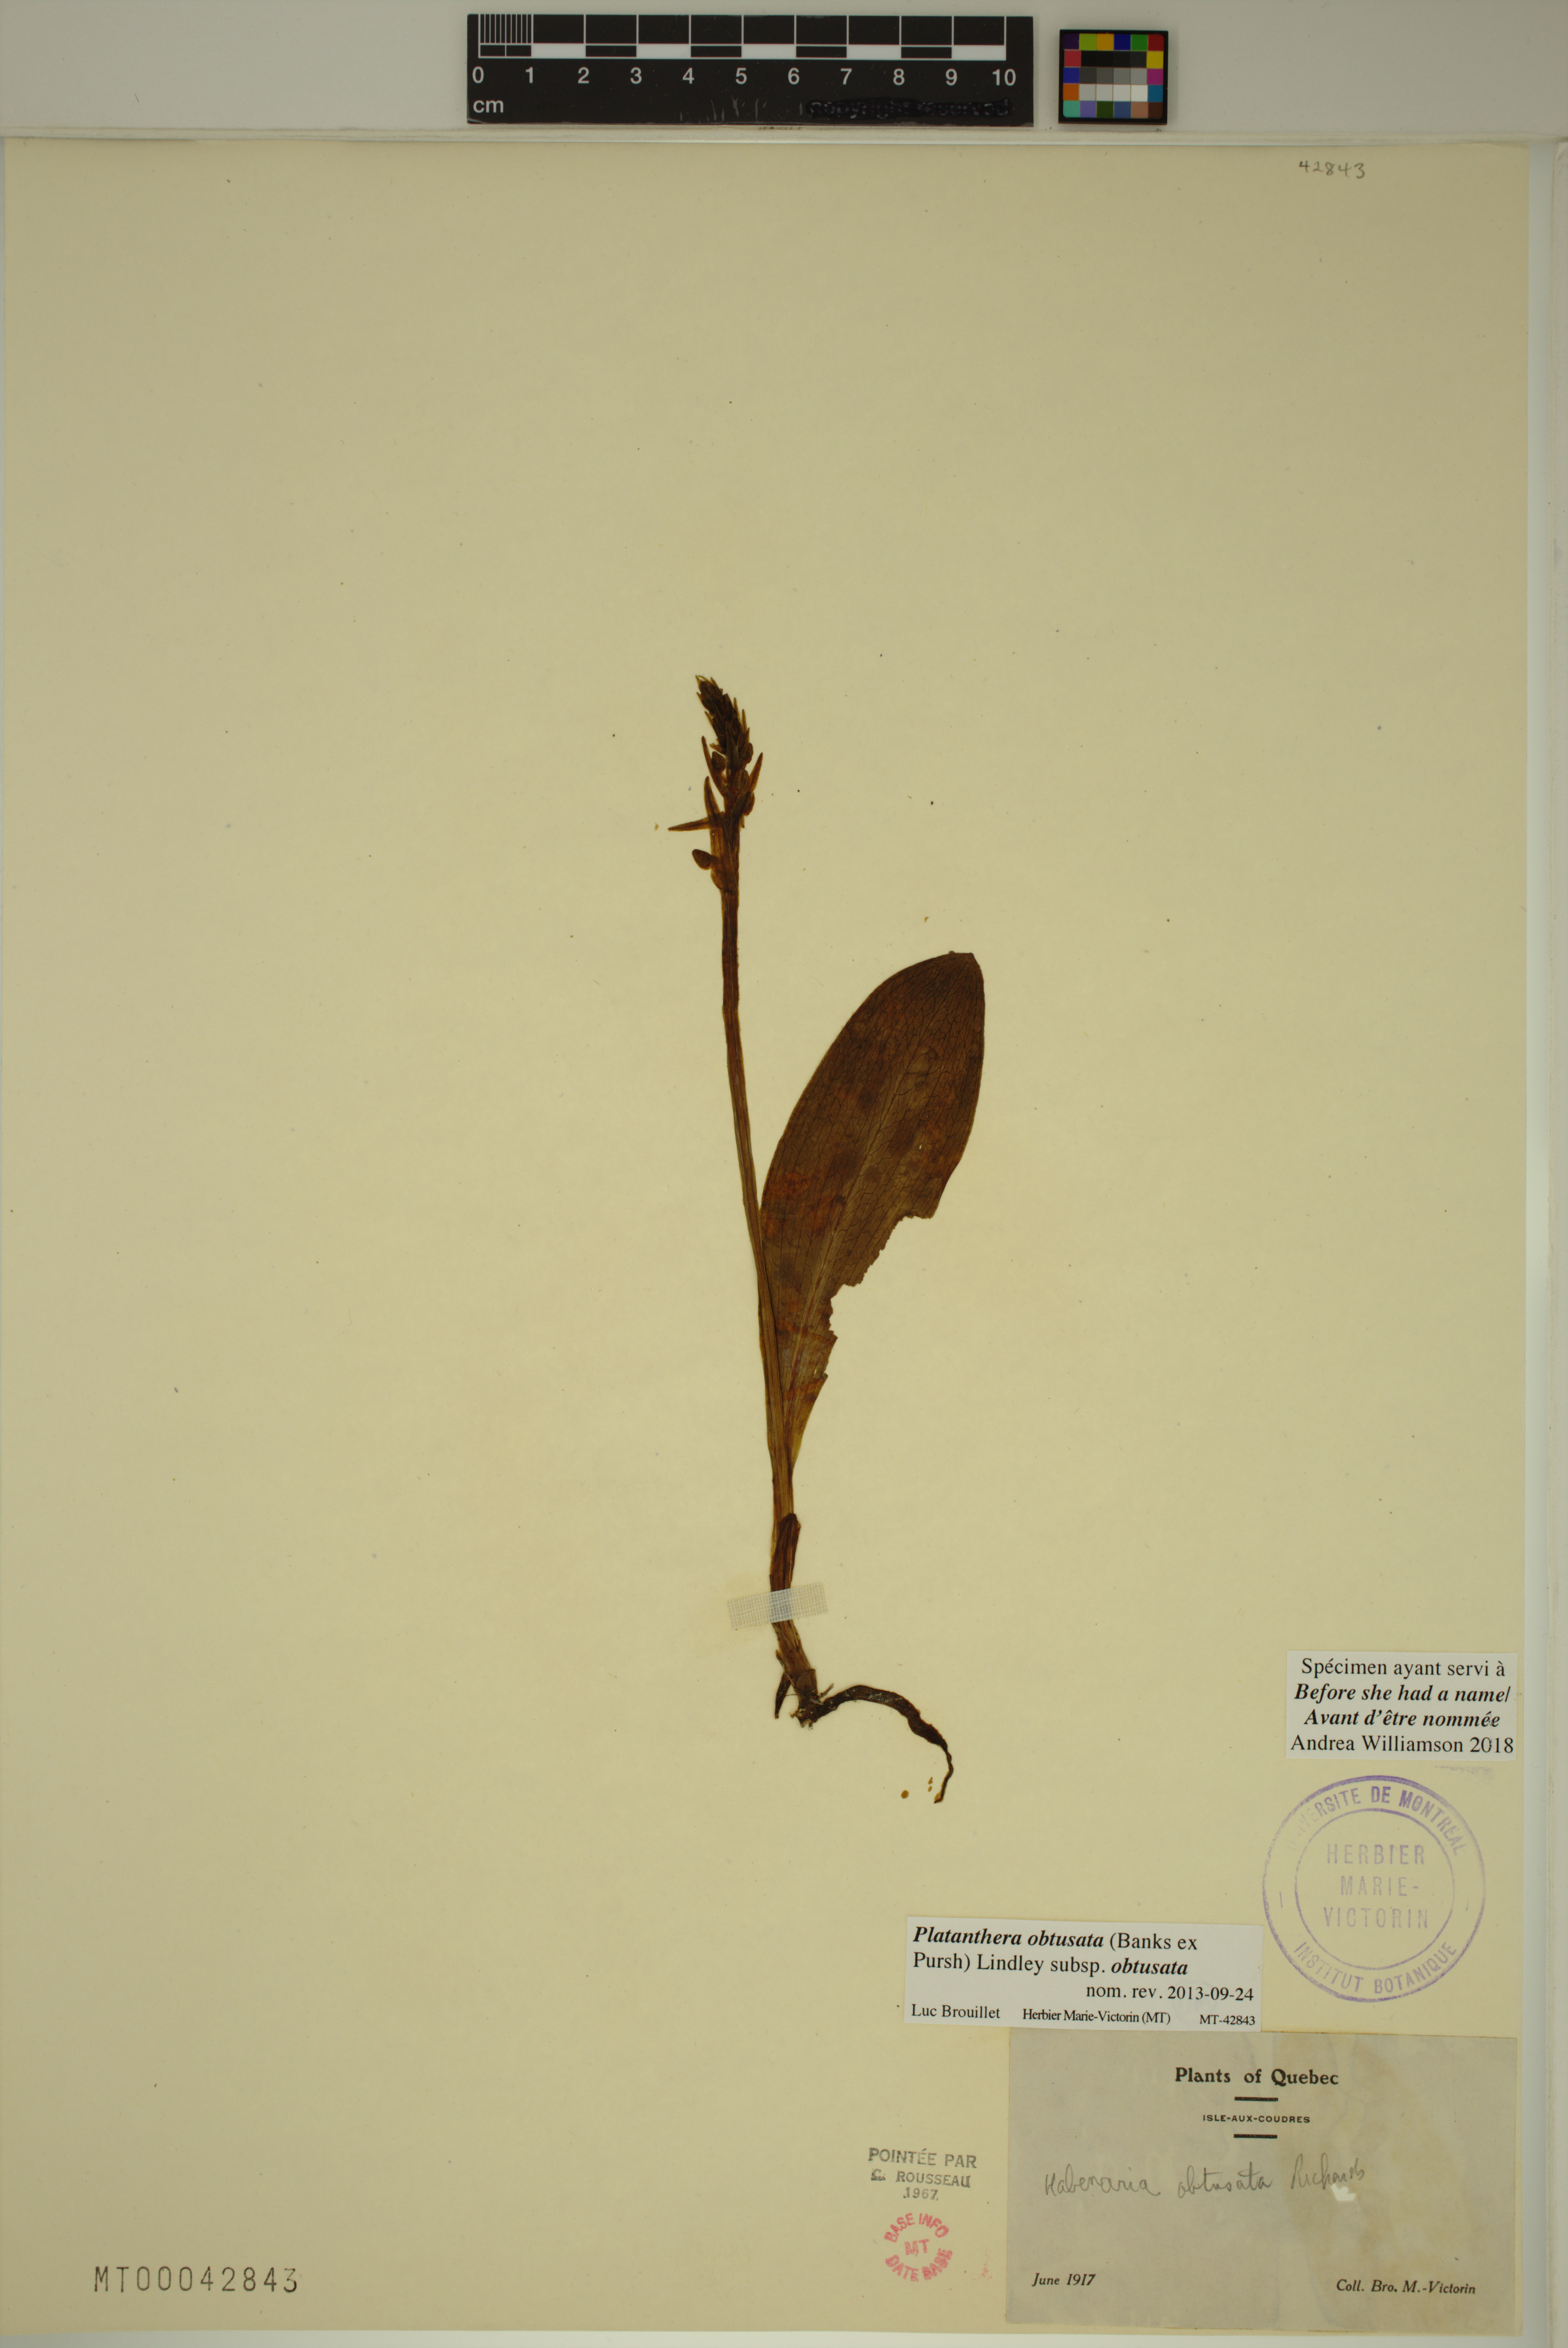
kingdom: Plantae
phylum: Tracheophyta
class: Liliopsida
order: Asparagales
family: Orchidaceae
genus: Platanthera
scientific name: Platanthera obtusata
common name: Blunt bog orchid
